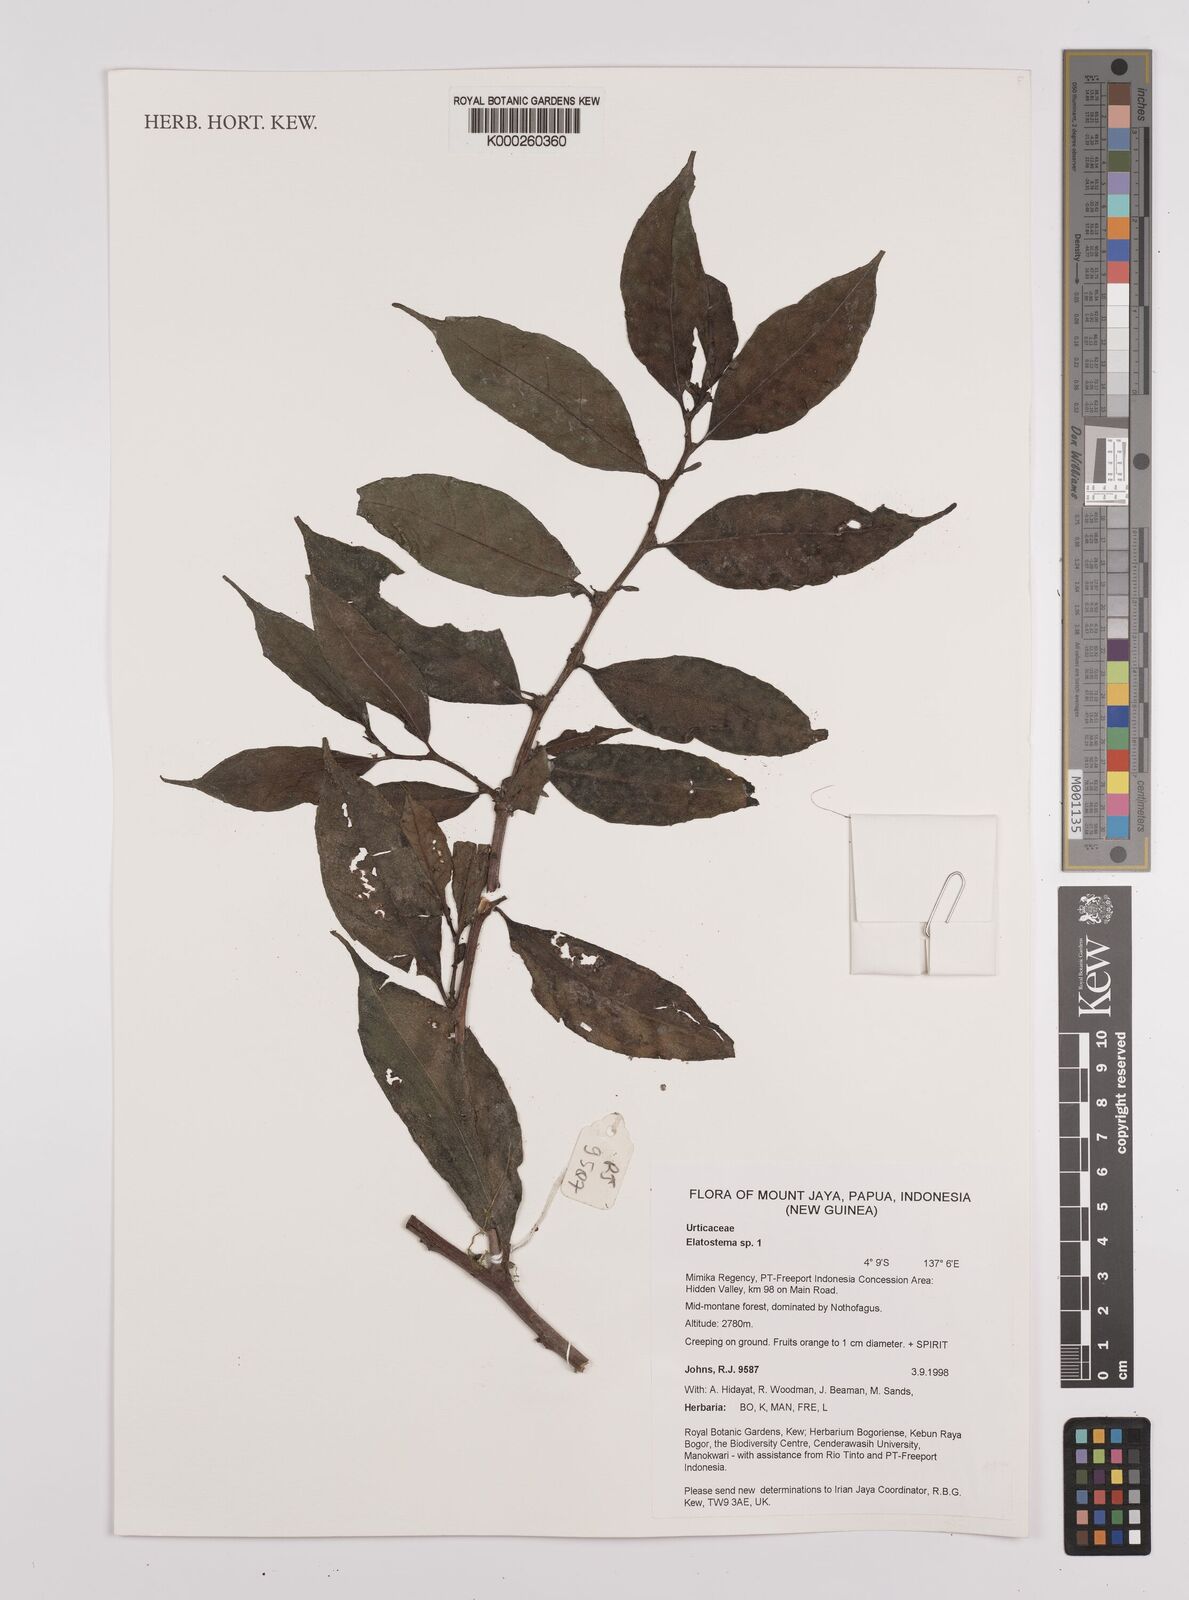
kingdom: Plantae
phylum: Tracheophyta
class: Magnoliopsida
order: Rosales
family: Urticaceae
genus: Elatostema
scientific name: Elatostema
